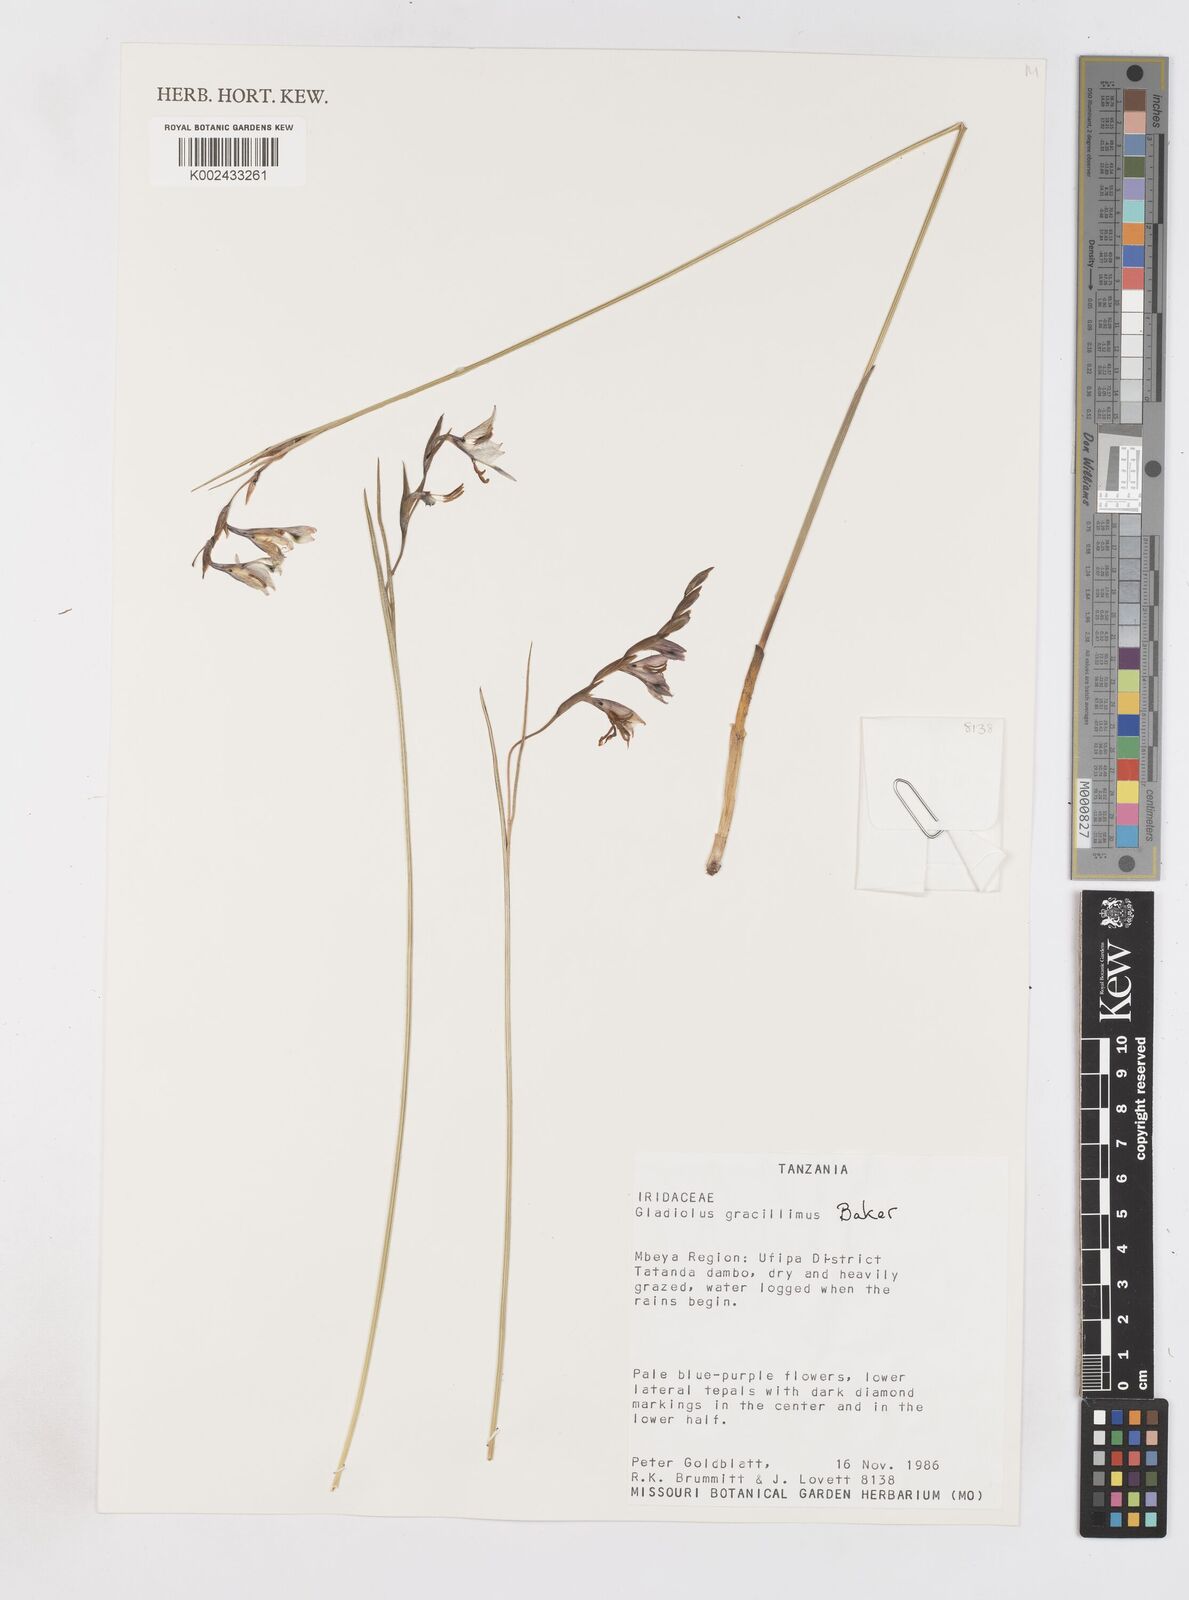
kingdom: Plantae
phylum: Tracheophyta
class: Liliopsida
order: Asparagales
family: Iridaceae
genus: Gladiolus
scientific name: Gladiolus gracillimus
